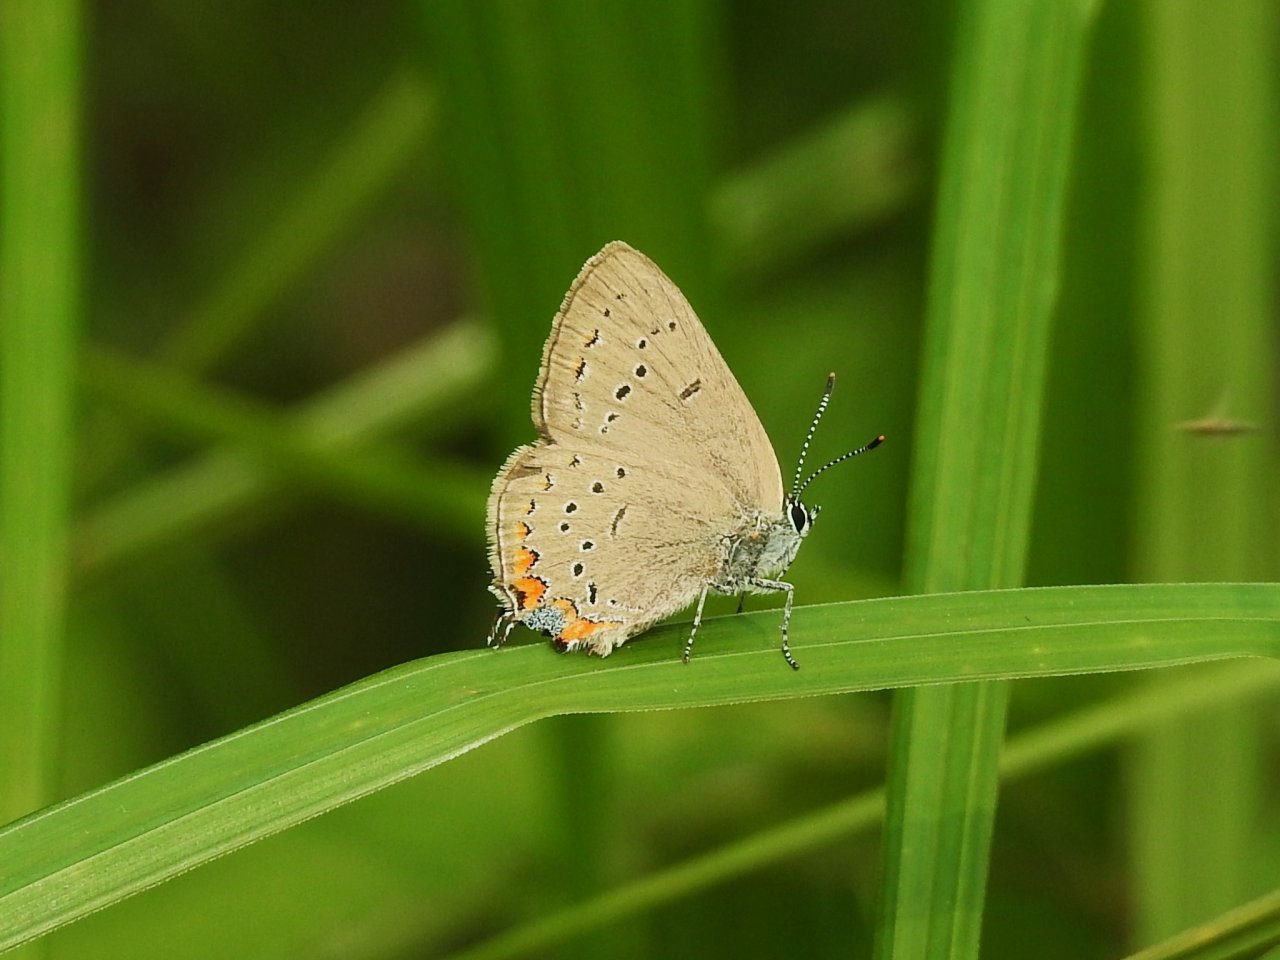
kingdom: Animalia
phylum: Arthropoda
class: Insecta
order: Lepidoptera
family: Lycaenidae
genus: Strymon
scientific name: Strymon acadica
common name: Acadian Hairstreak
